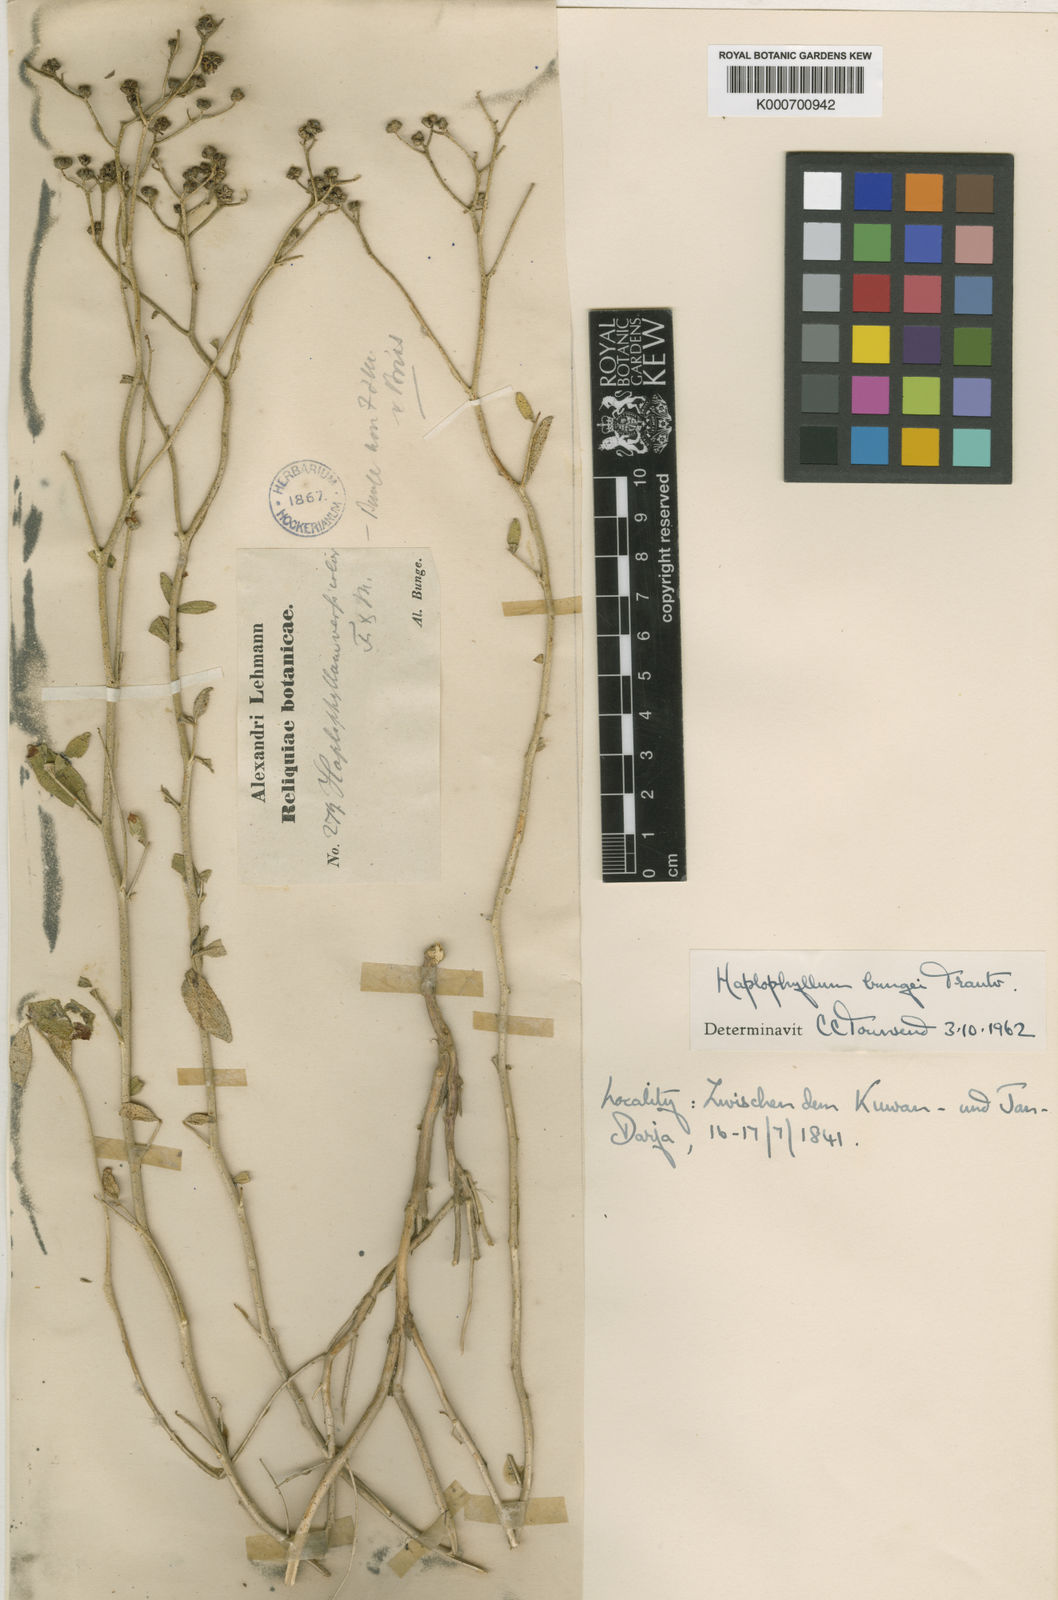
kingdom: Plantae
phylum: Tracheophyta
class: Magnoliopsida
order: Sapindales
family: Rutaceae
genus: Haplophyllum
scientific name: Haplophyllum bungei
